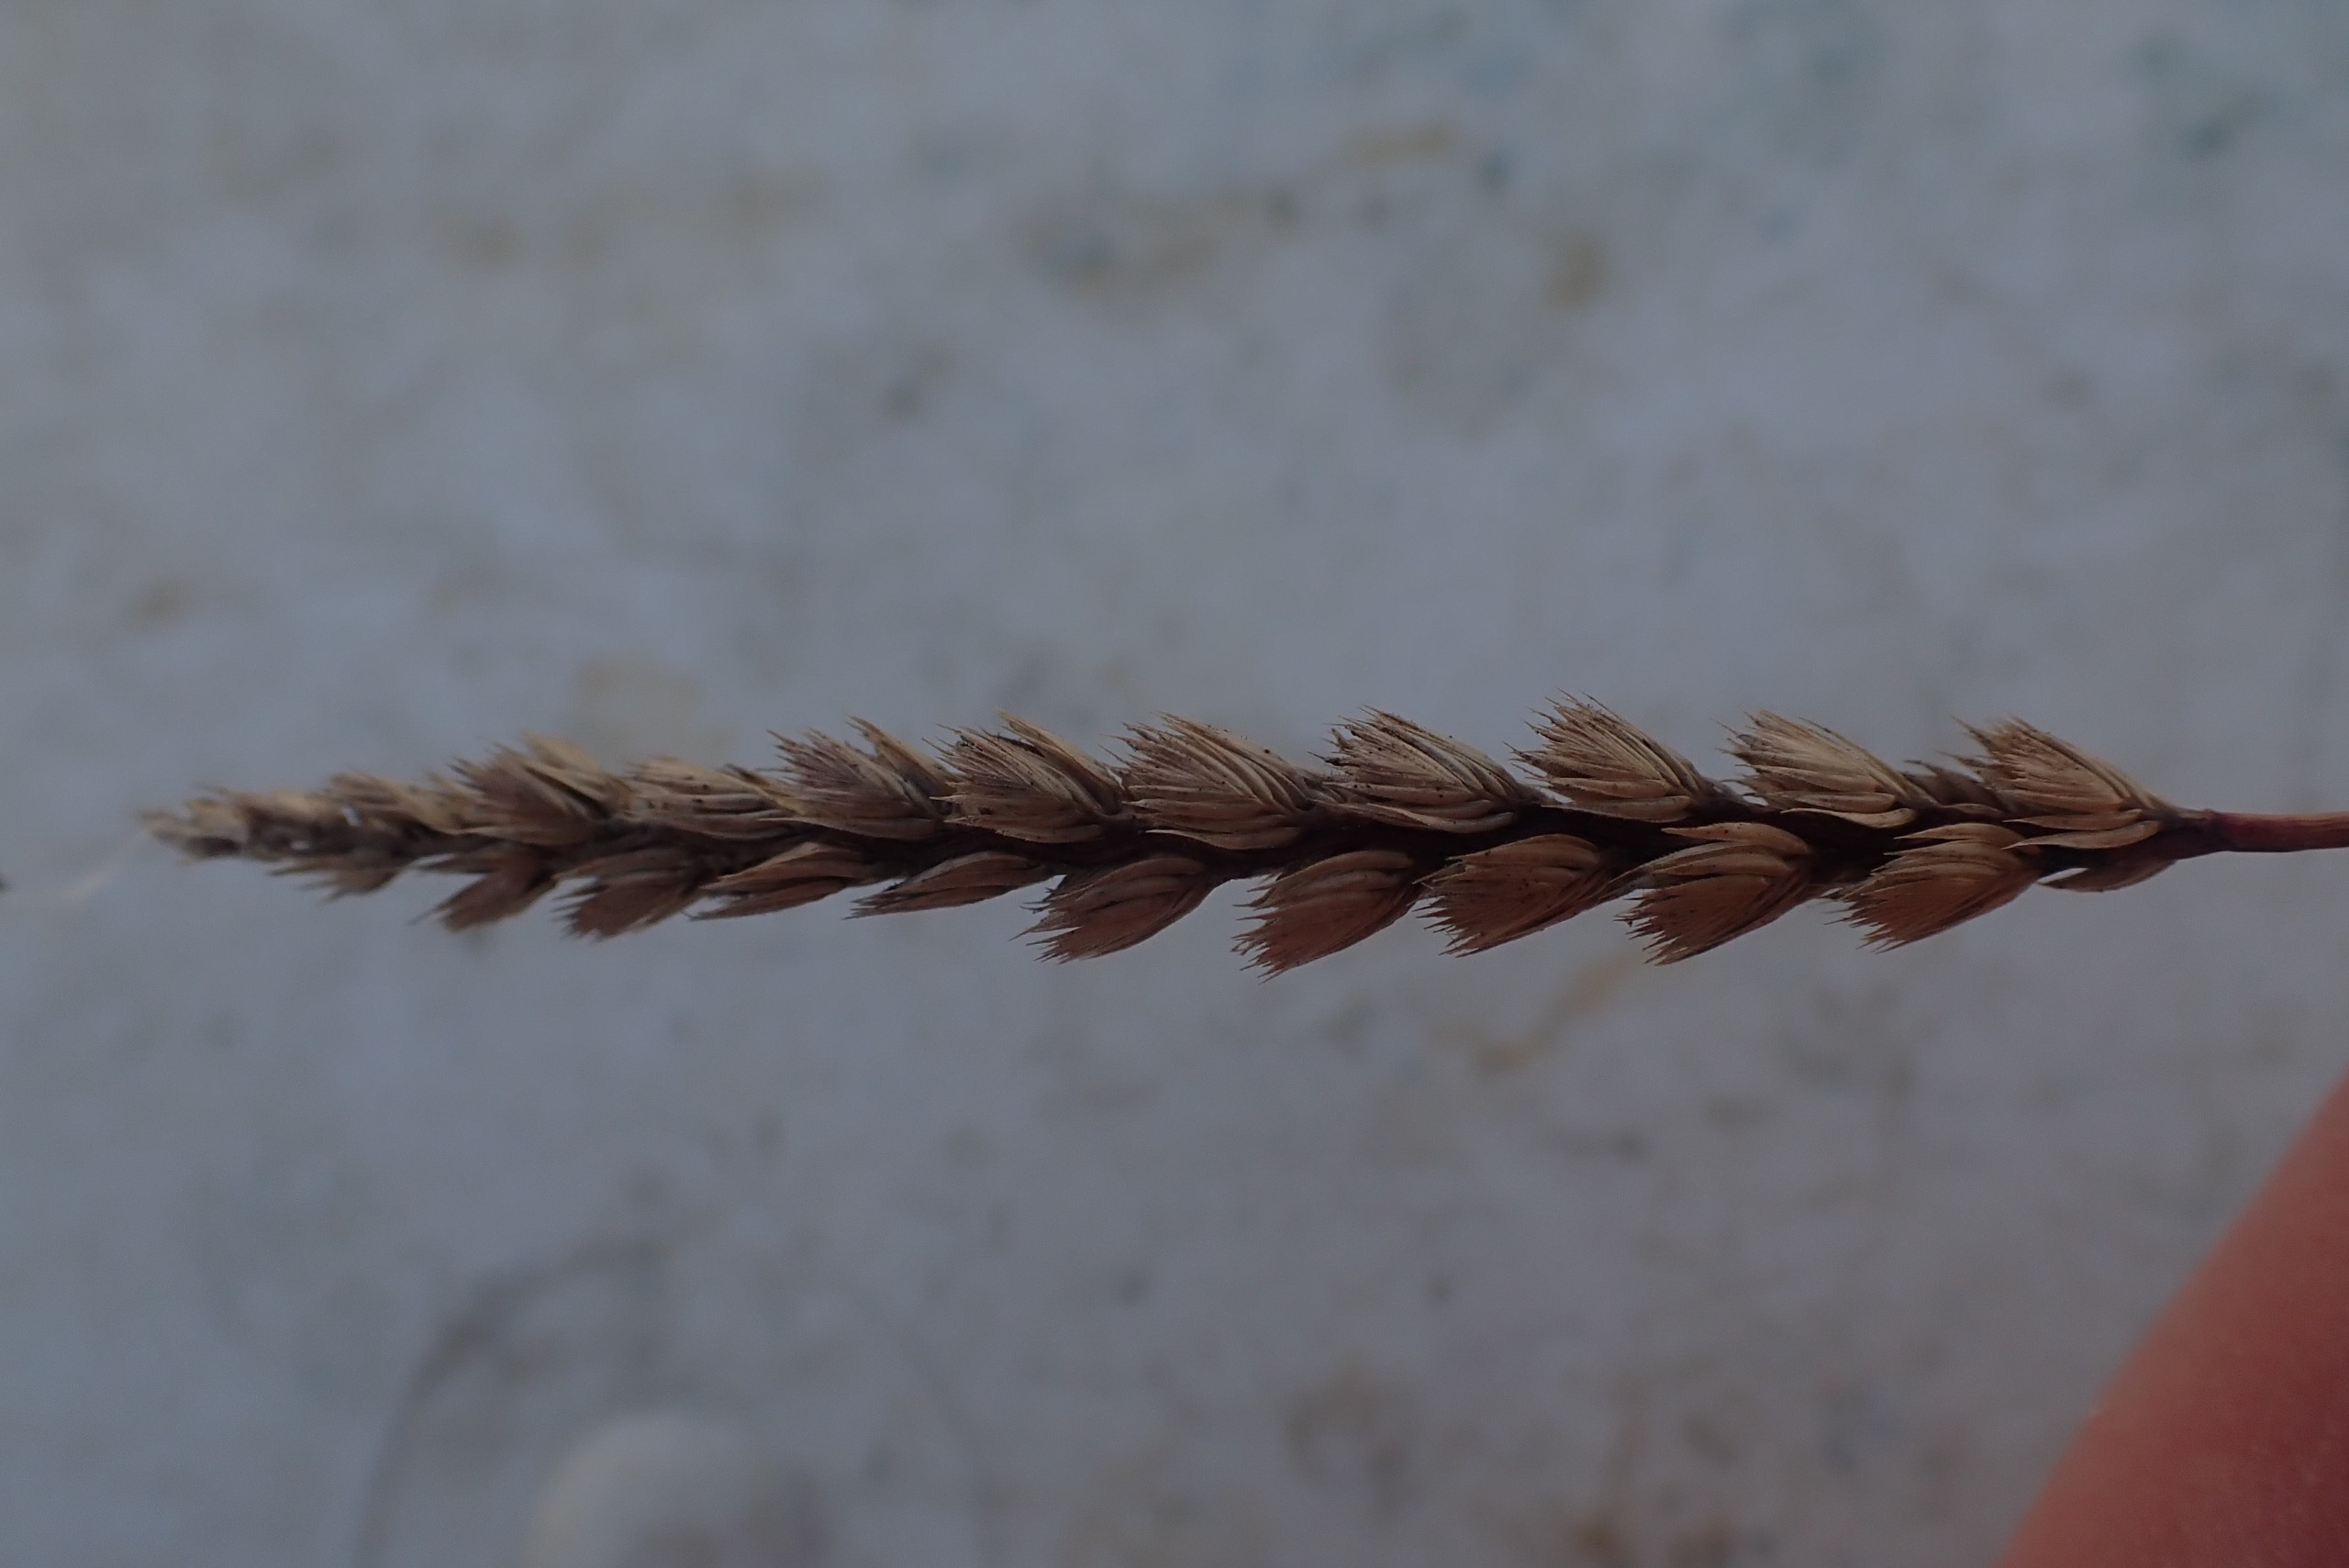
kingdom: Plantae
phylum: Tracheophyta
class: Liliopsida
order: Poales
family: Poaceae
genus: Cynosurus
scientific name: Cynosurus cristatus
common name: Kamgræs
